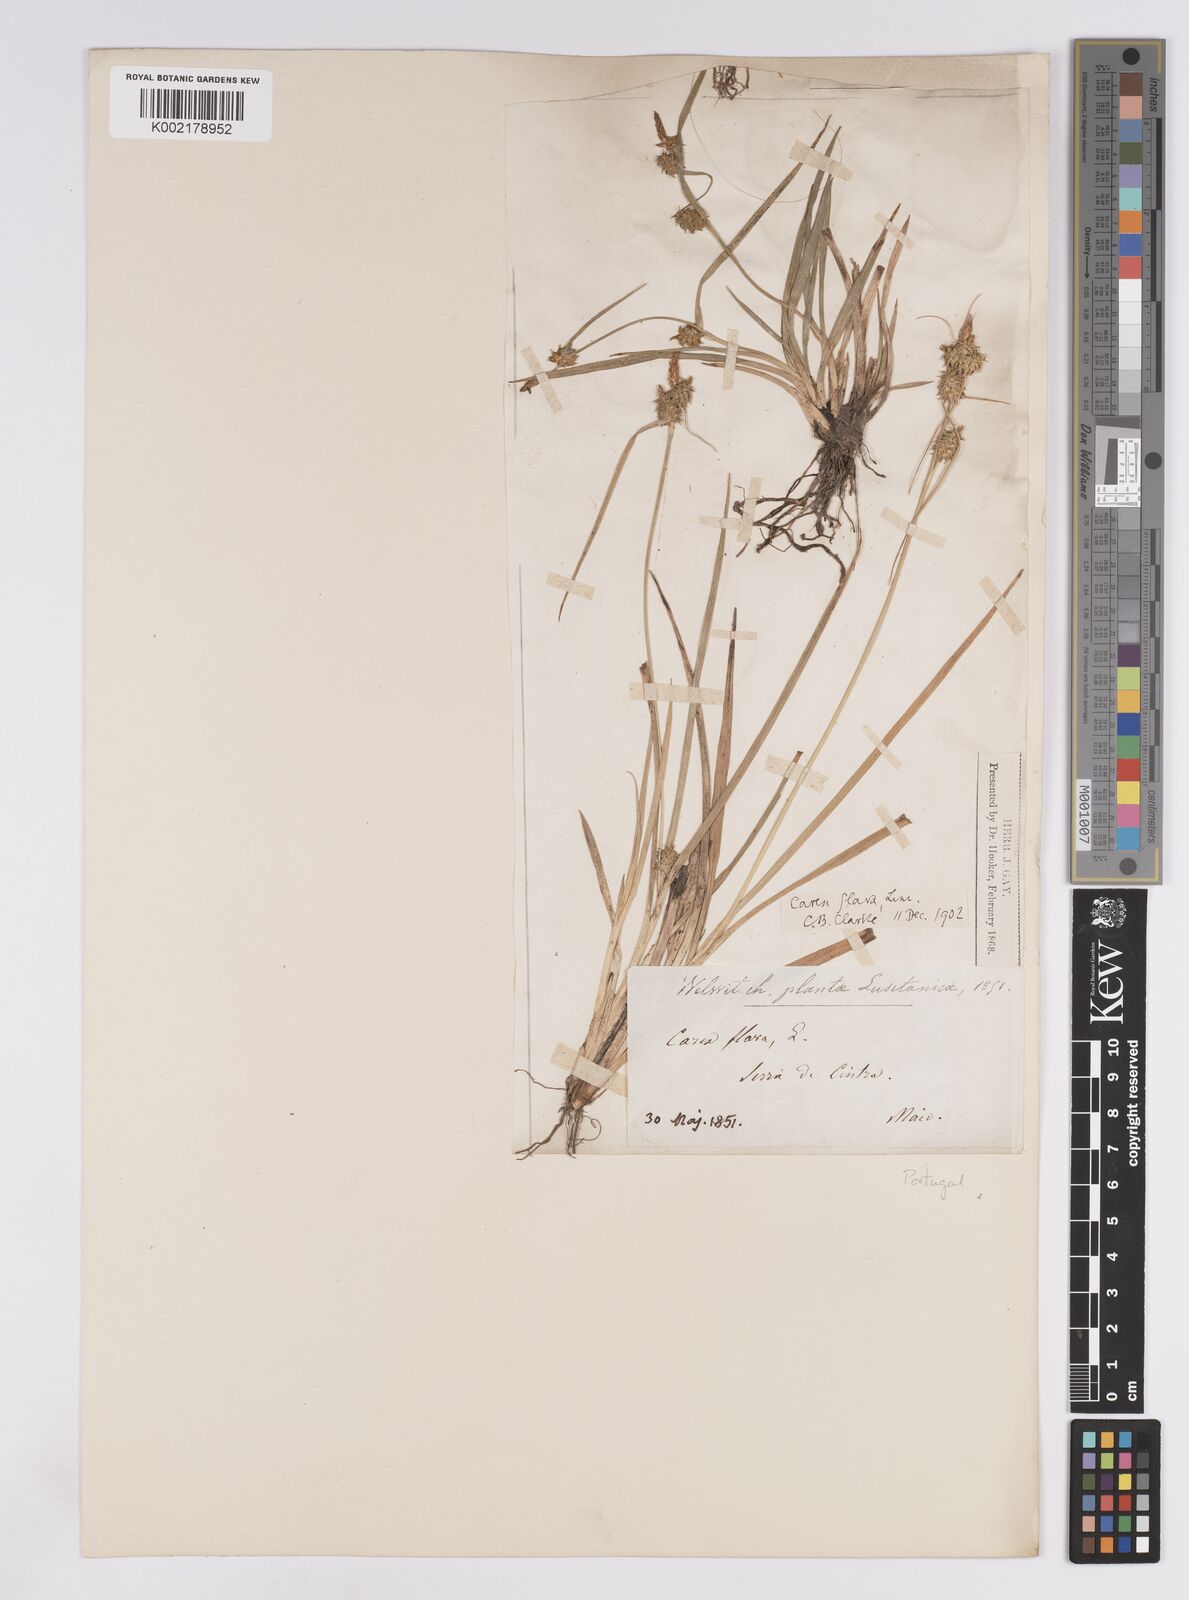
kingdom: Plantae
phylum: Tracheophyta
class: Liliopsida
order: Poales
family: Cyperaceae
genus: Carex
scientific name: Carex lepidocarpa
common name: Long-stalked yellow-sedge
